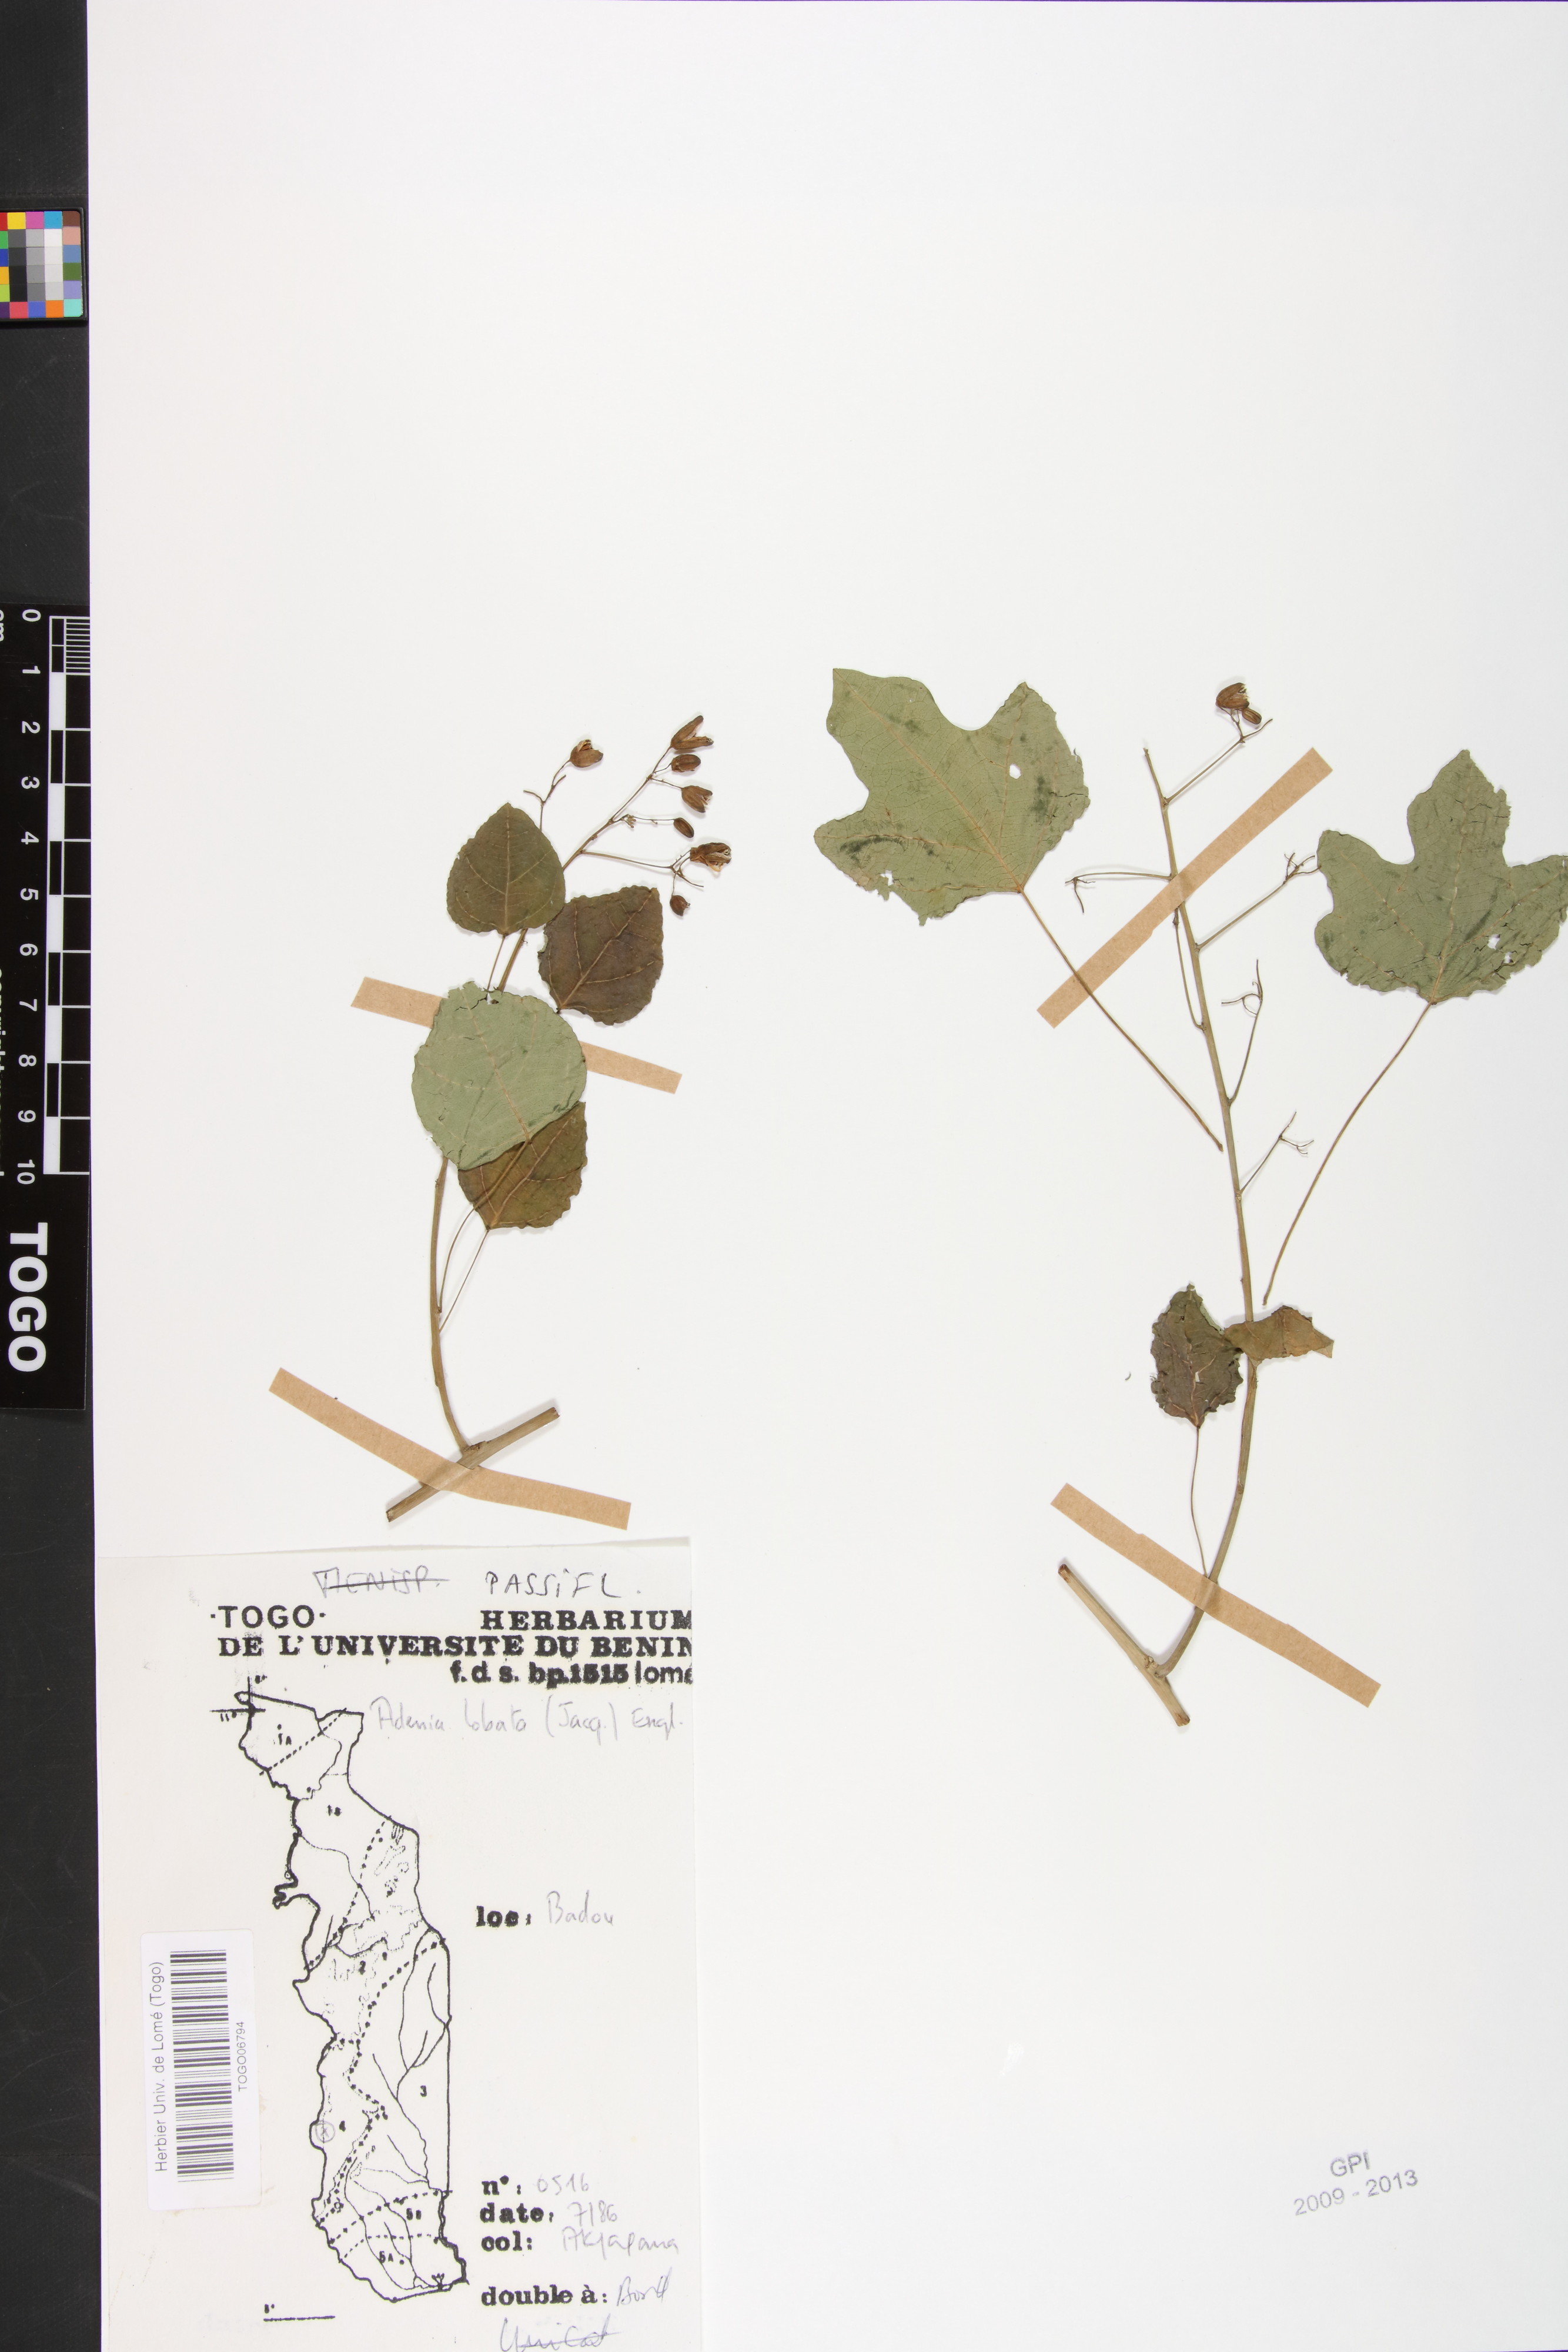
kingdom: Plantae
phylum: Tracheophyta
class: Magnoliopsida
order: Malpighiales
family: Passifloraceae
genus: Adenia
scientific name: Adenia lobata
